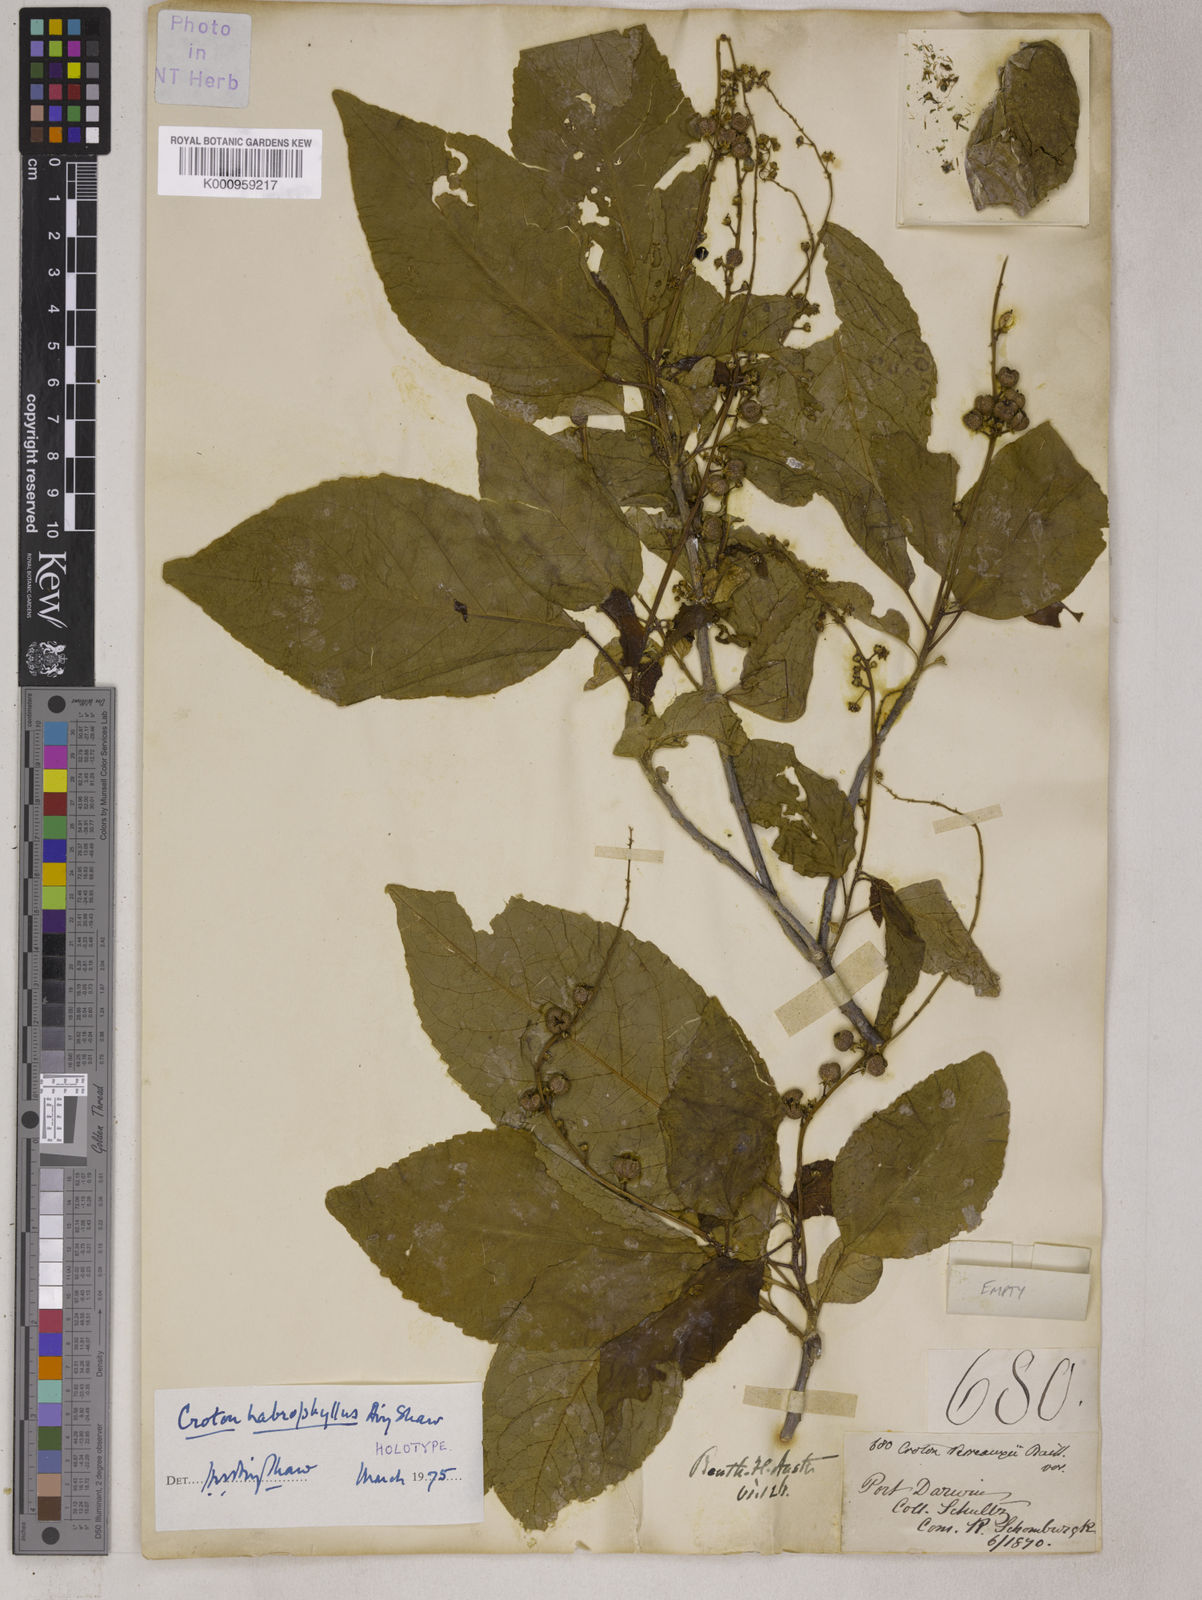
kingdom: Plantae
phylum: Tracheophyta
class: Magnoliopsida
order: Malpighiales
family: Euphorbiaceae
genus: Croton
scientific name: Croton habrophyllus
